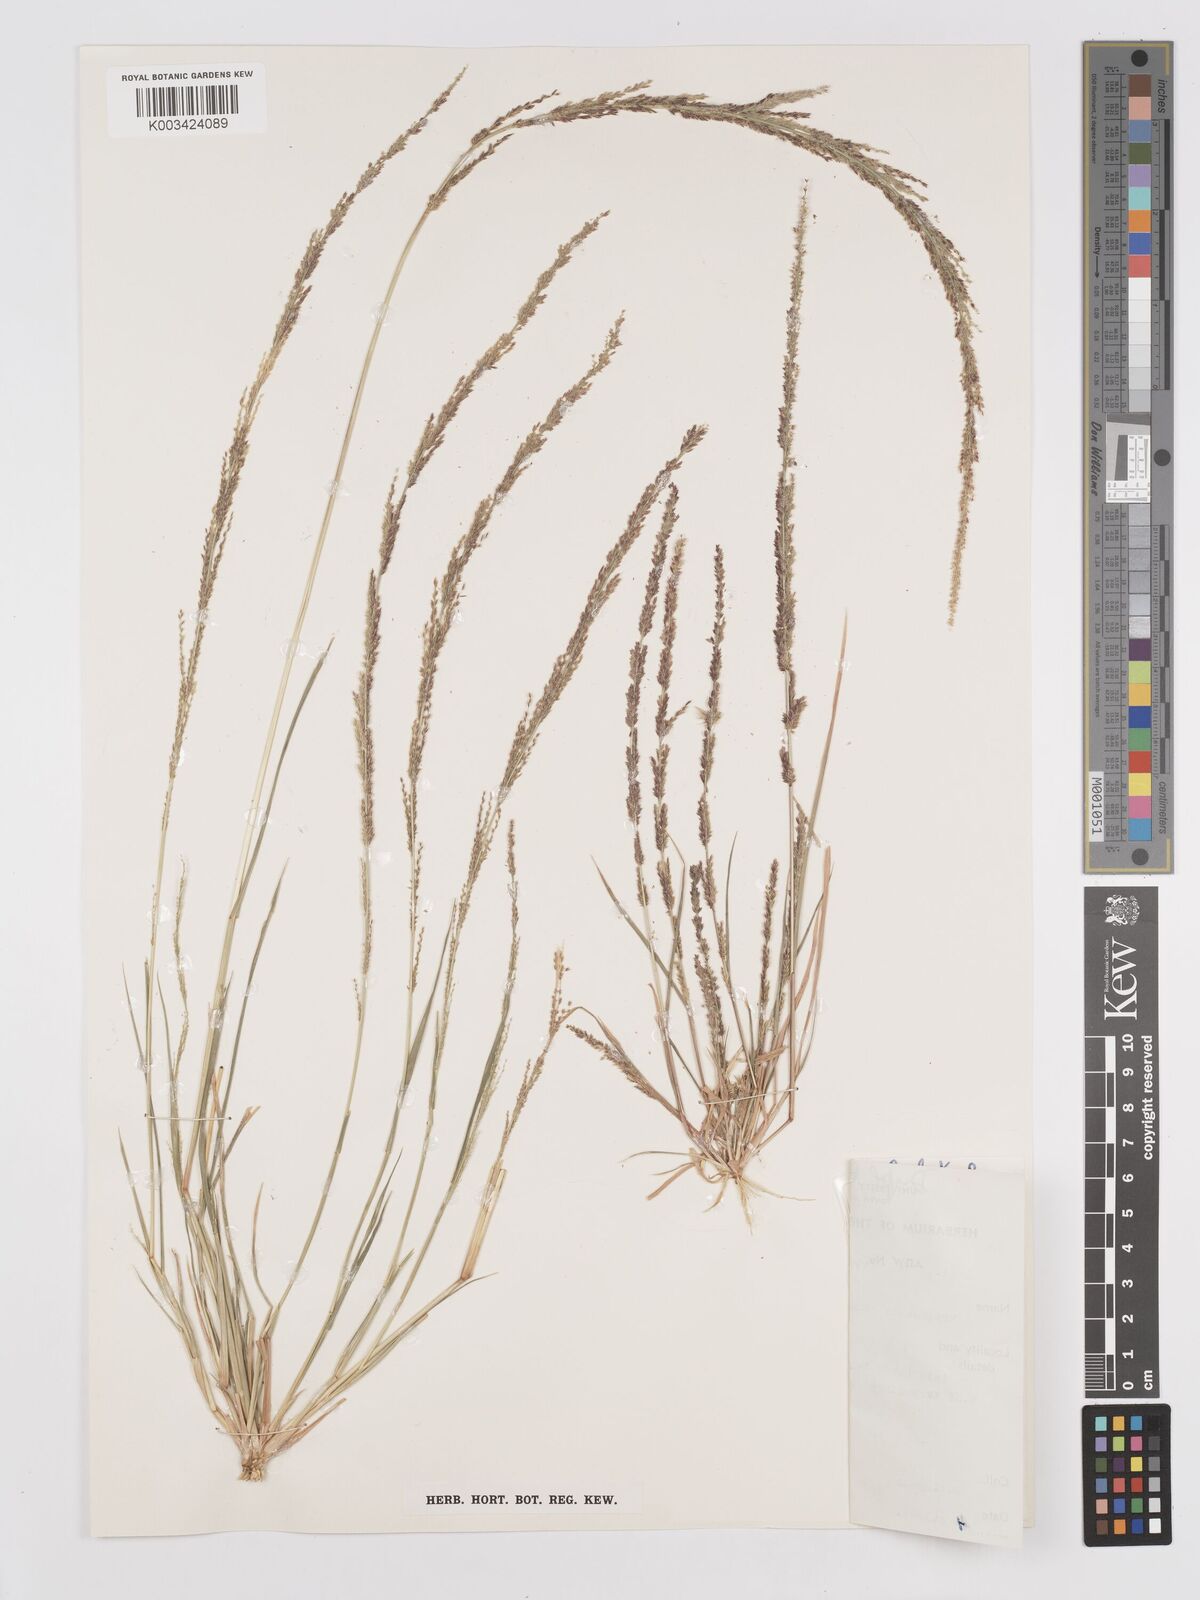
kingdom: Plantae
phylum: Tracheophyta
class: Liliopsida
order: Poales
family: Poaceae
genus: Eragrostis
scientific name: Eragrostis confertiflora
